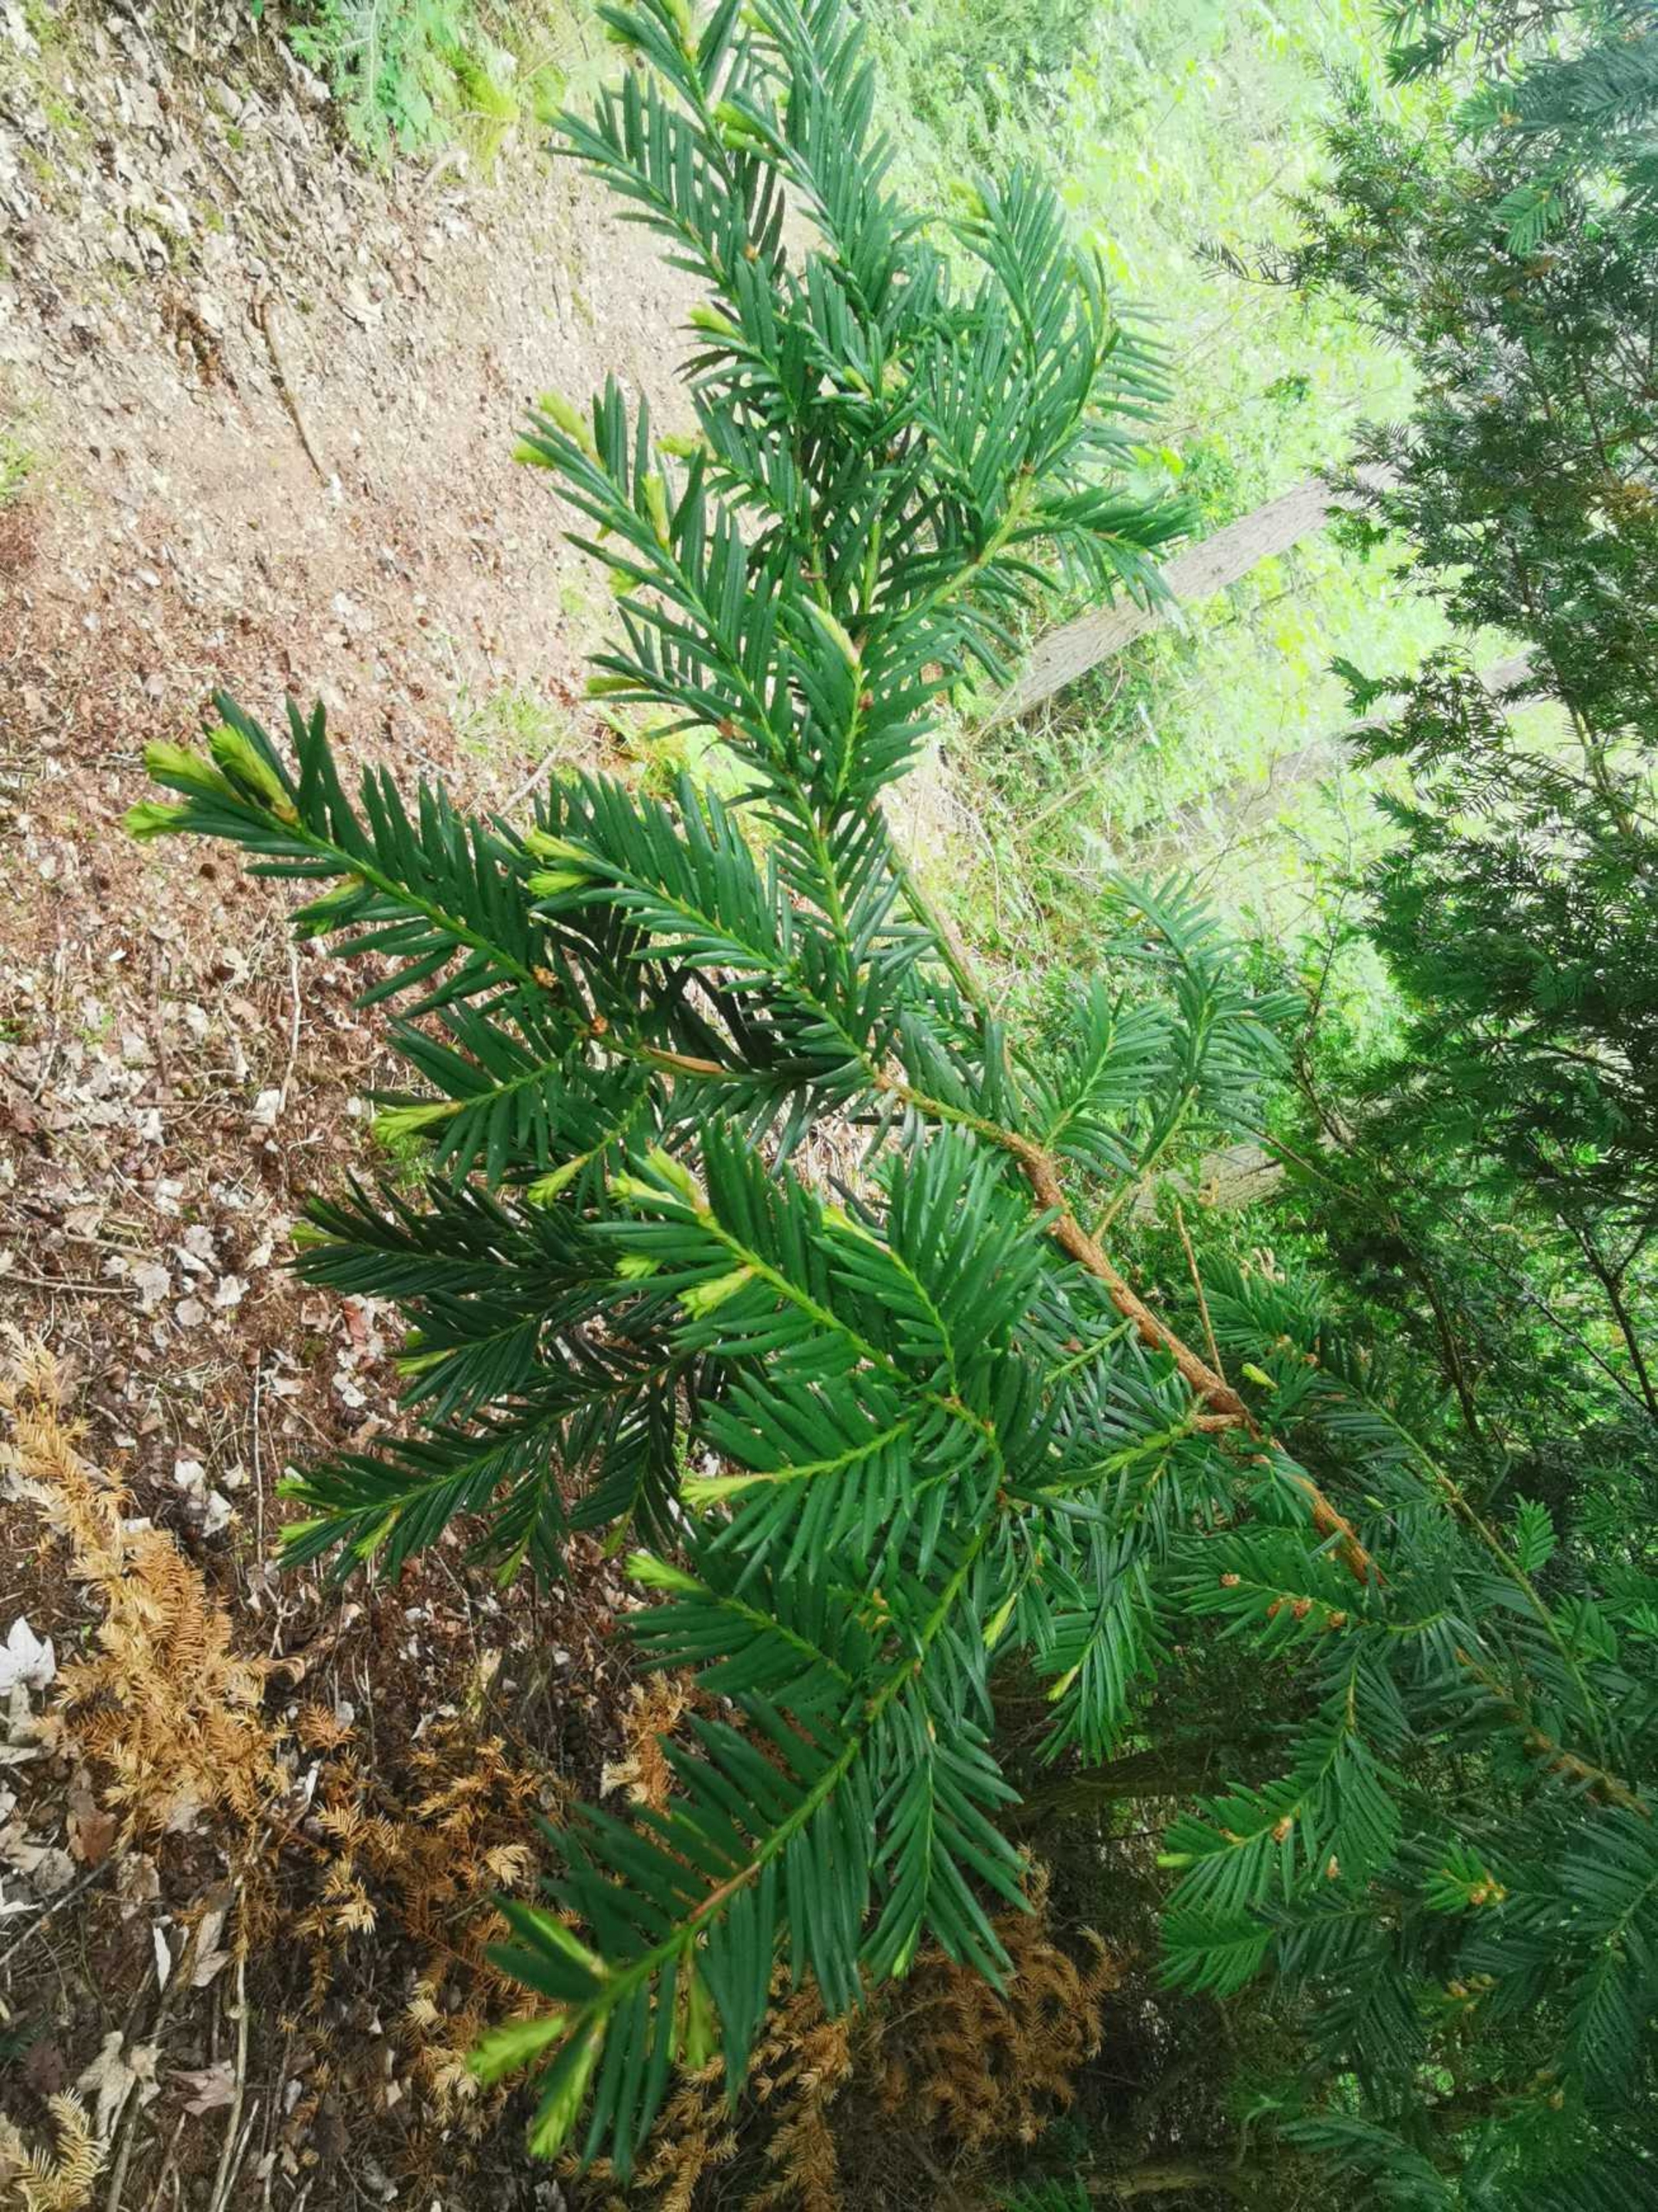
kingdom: Plantae
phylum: Tracheophyta
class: Pinopsida
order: Pinales
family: Taxaceae
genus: Taxus
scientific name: Taxus baccata
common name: Almindelig taks
